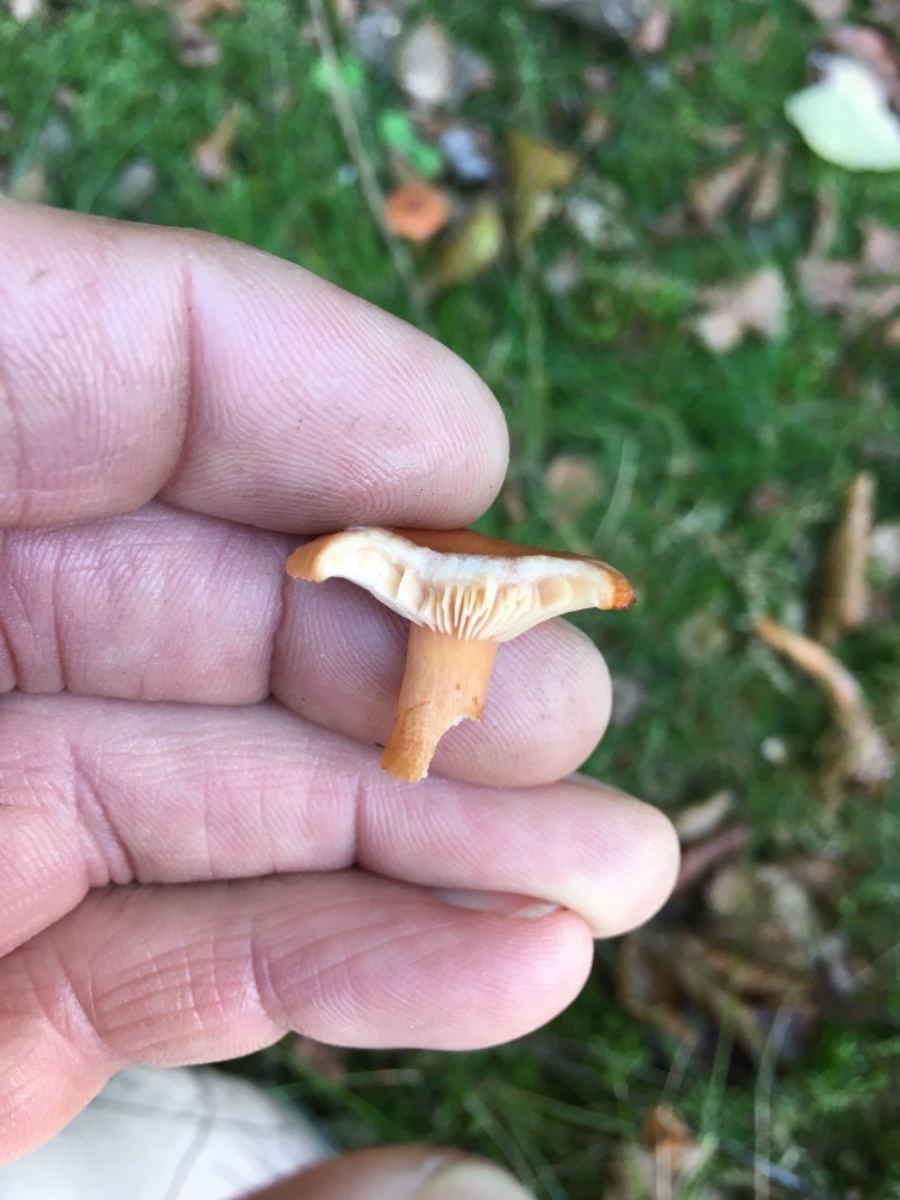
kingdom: Fungi
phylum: Basidiomycota
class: Agaricomycetes
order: Russulales
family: Russulaceae
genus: Lactarius
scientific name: Lactarius
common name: mælkehat
